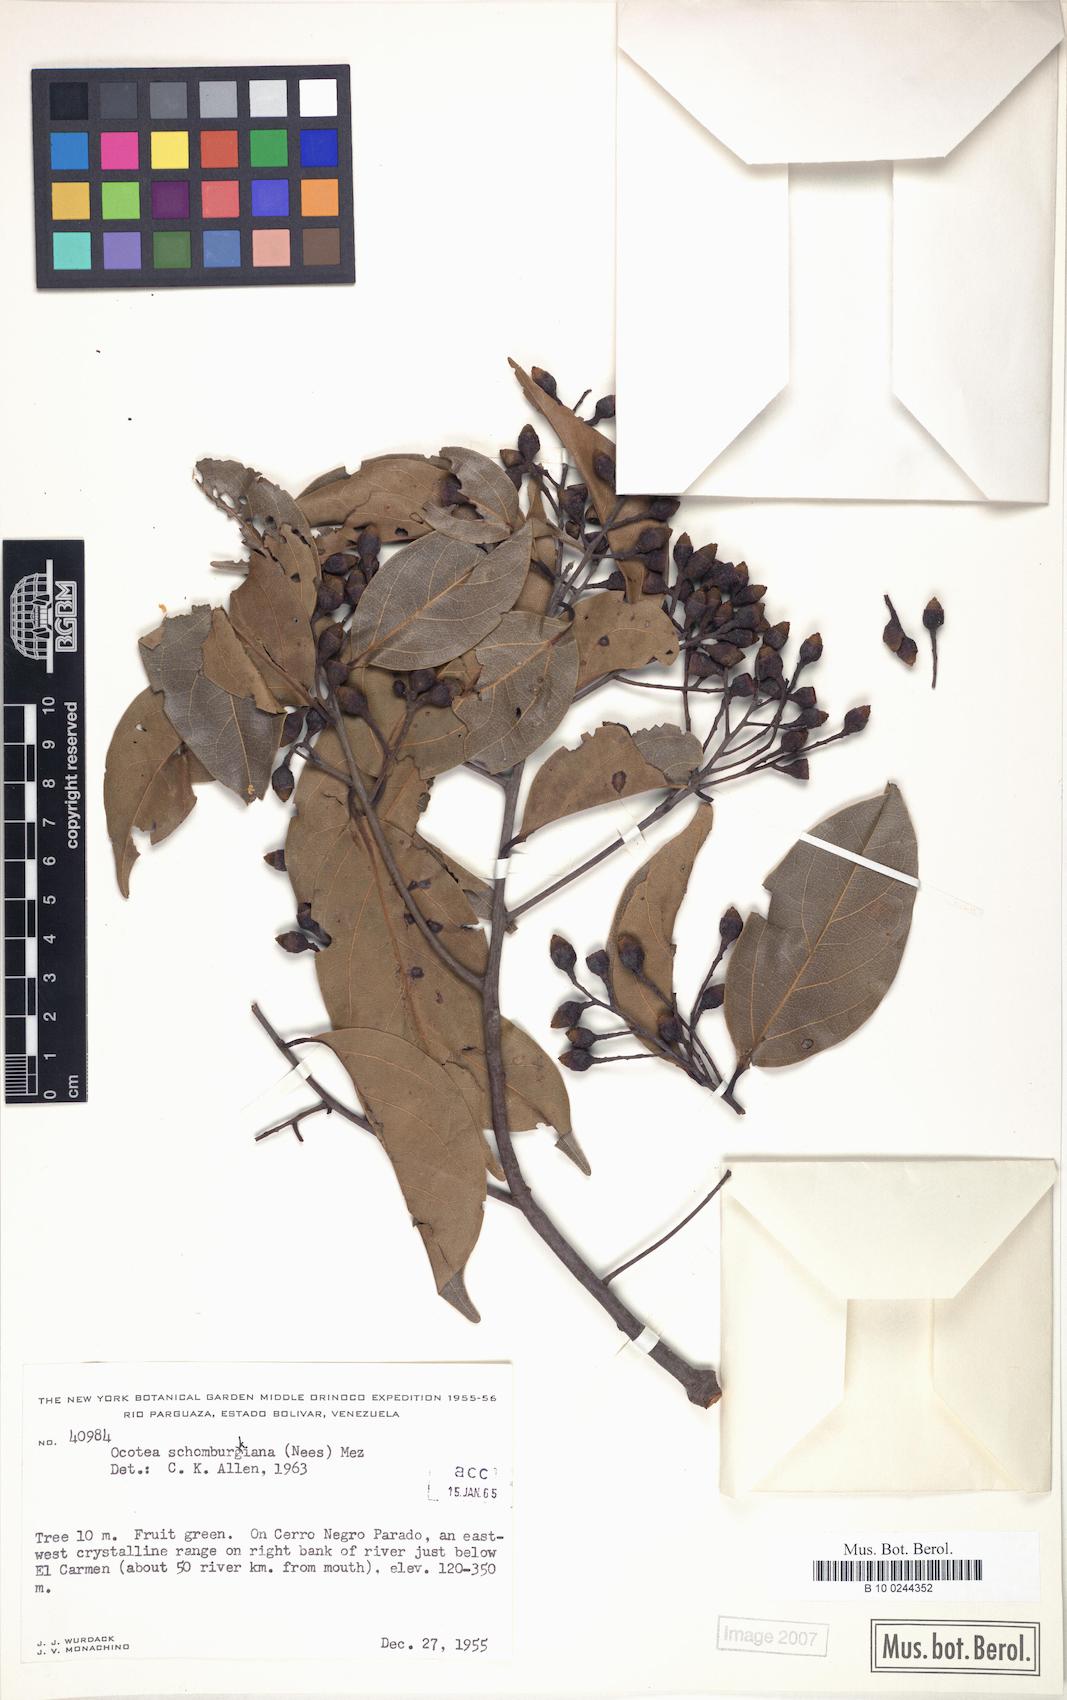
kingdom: Plantae
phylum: Tracheophyta
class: Magnoliopsida
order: Laurales
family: Lauraceae
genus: Ocotea
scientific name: Ocotea schomburgkiana
